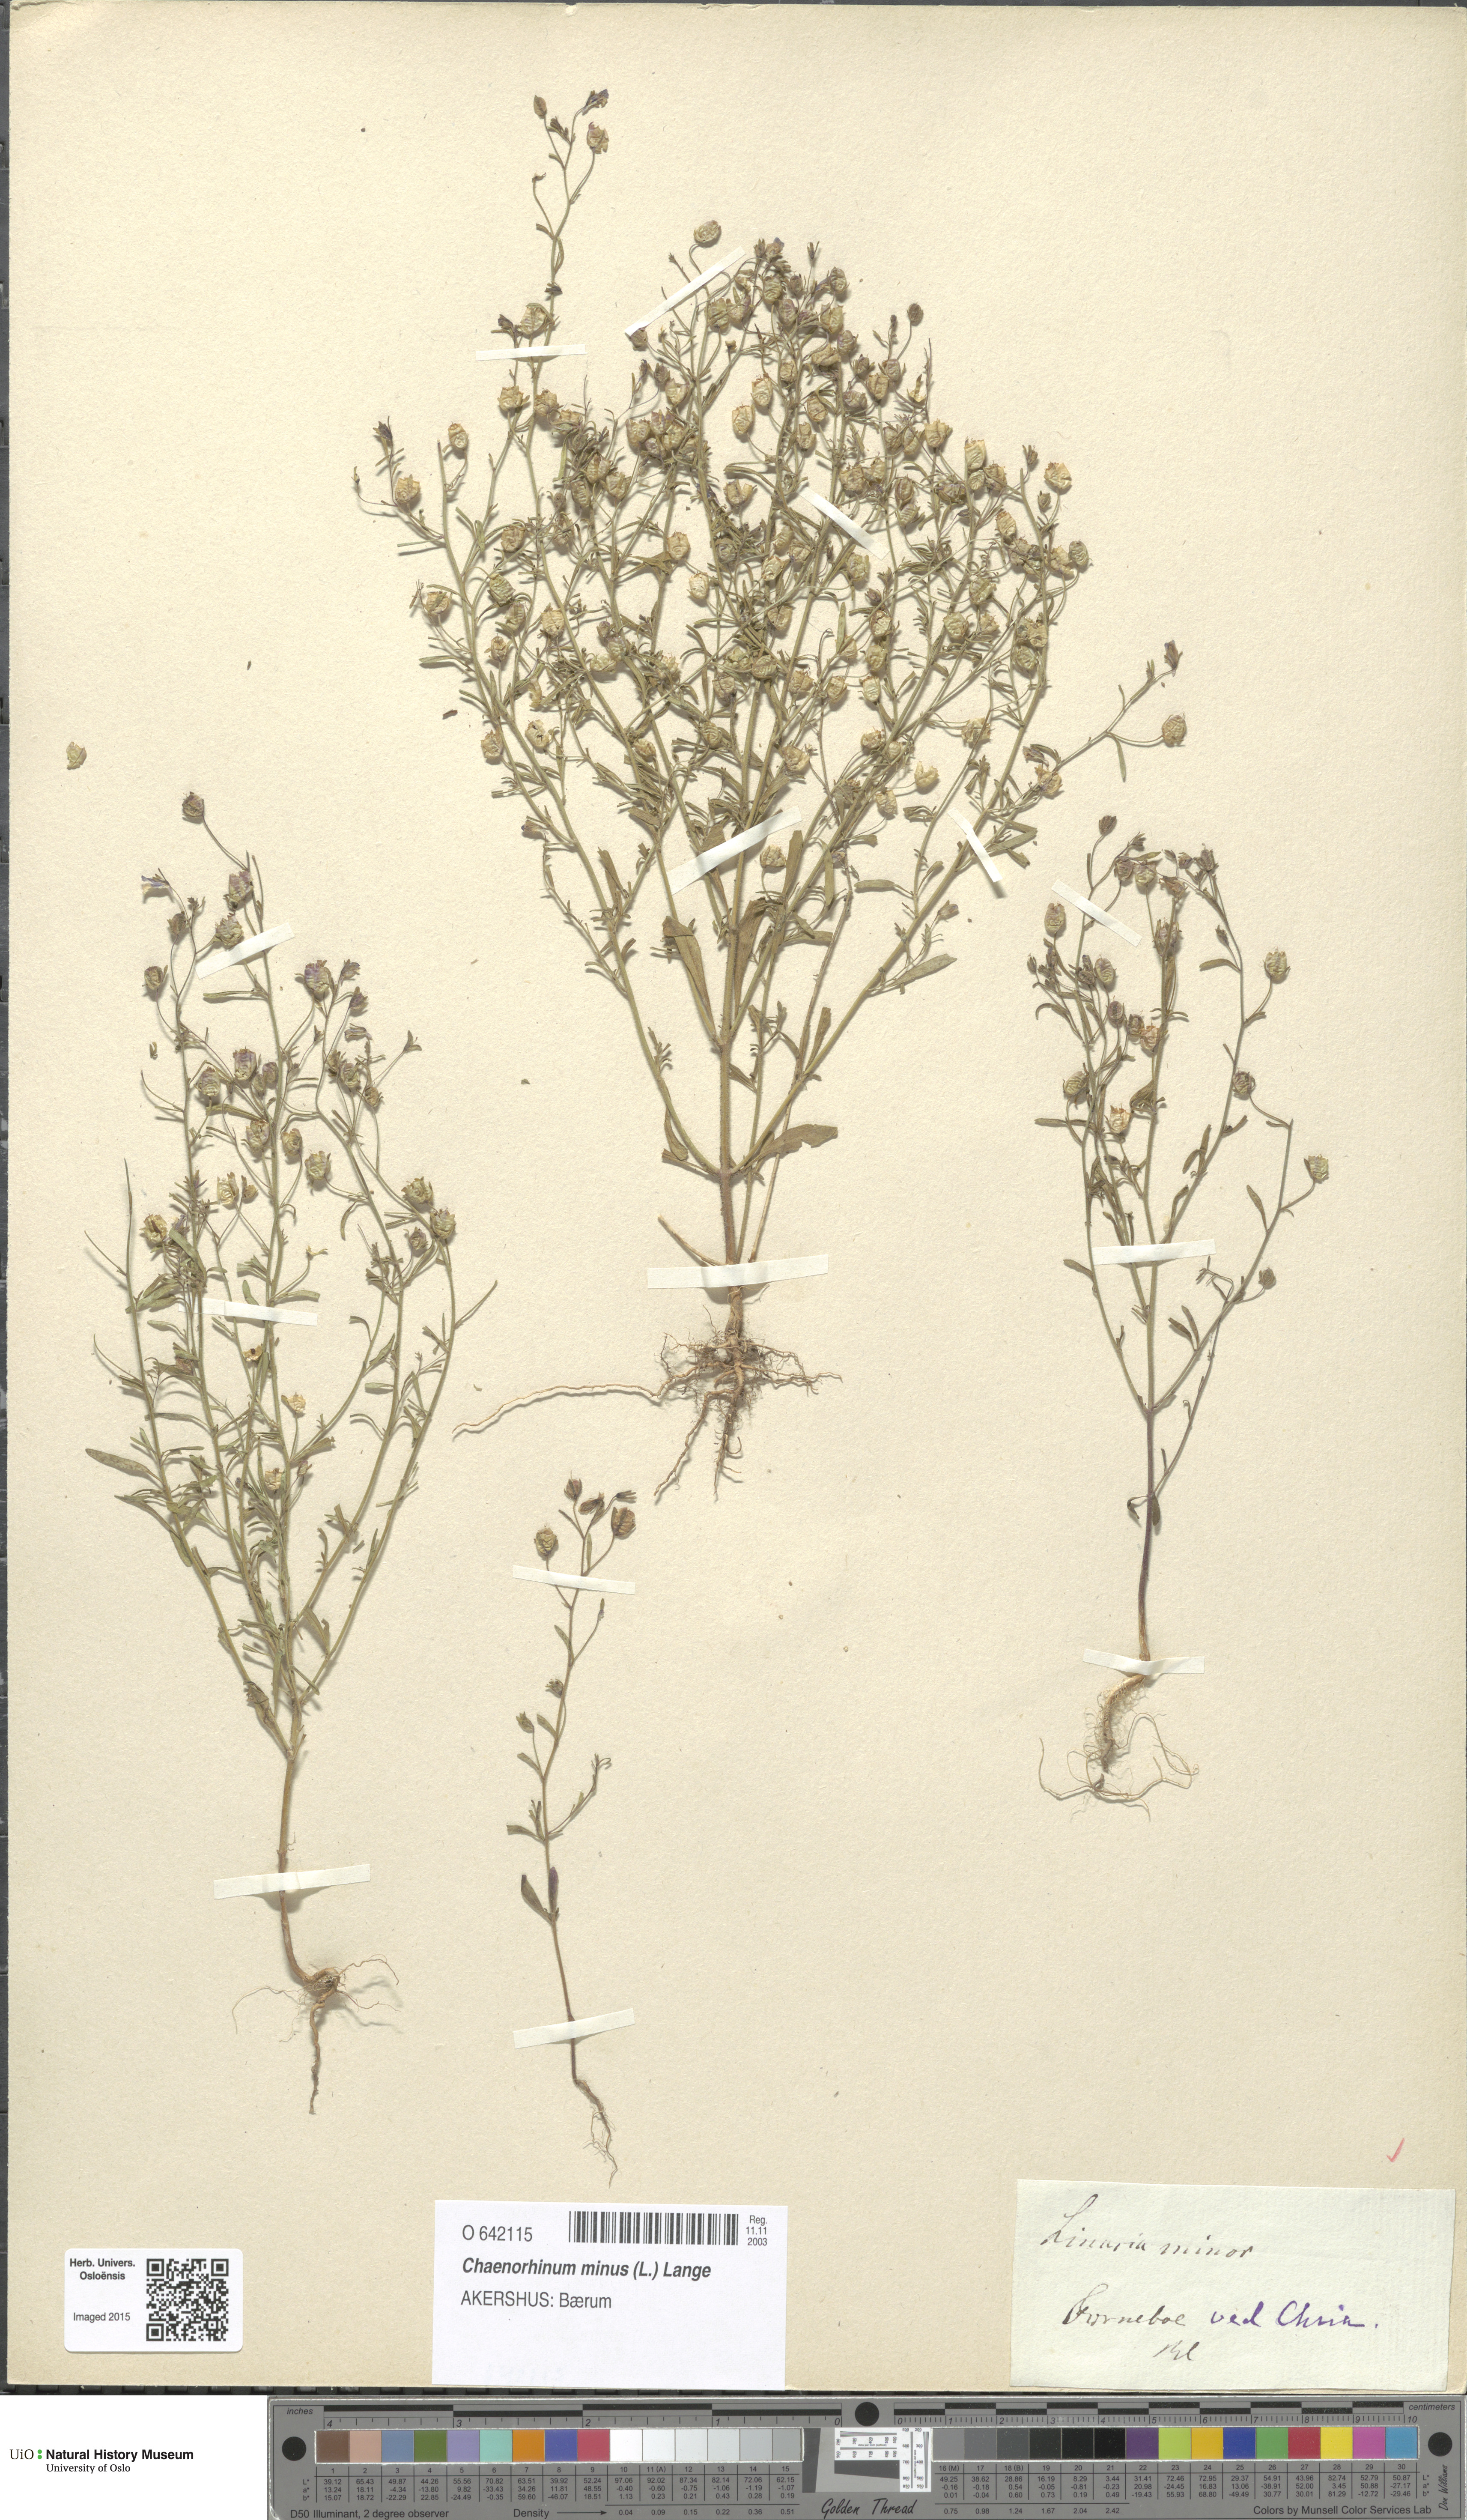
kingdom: Plantae
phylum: Tracheophyta
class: Magnoliopsida
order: Lamiales
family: Plantaginaceae
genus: Chaenorhinum
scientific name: Chaenorhinum minus
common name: Dwarf snapdragon
